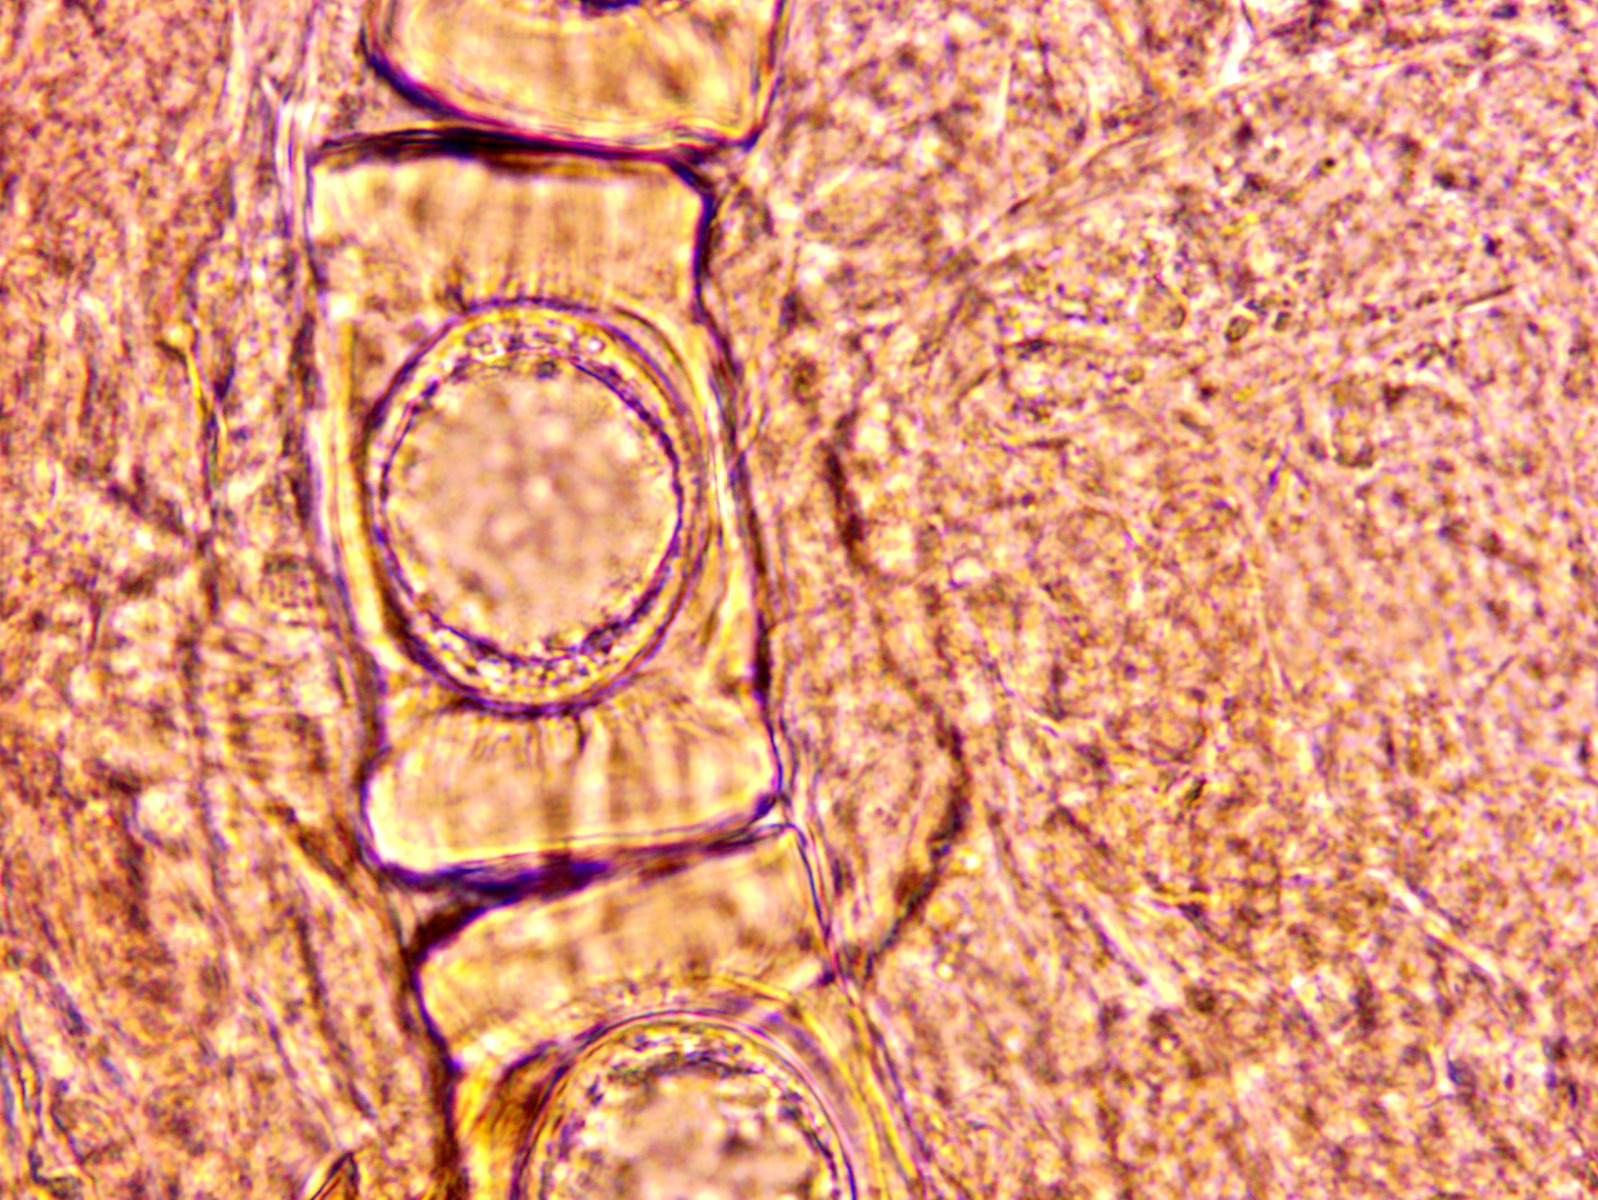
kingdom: Fungi
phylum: Ascomycota
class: Pezizomycetes
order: Pezizales
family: Discinaceae
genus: Hydnotrya
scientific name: Hydnotrya cubispora
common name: kassesporet foldtrøffel
